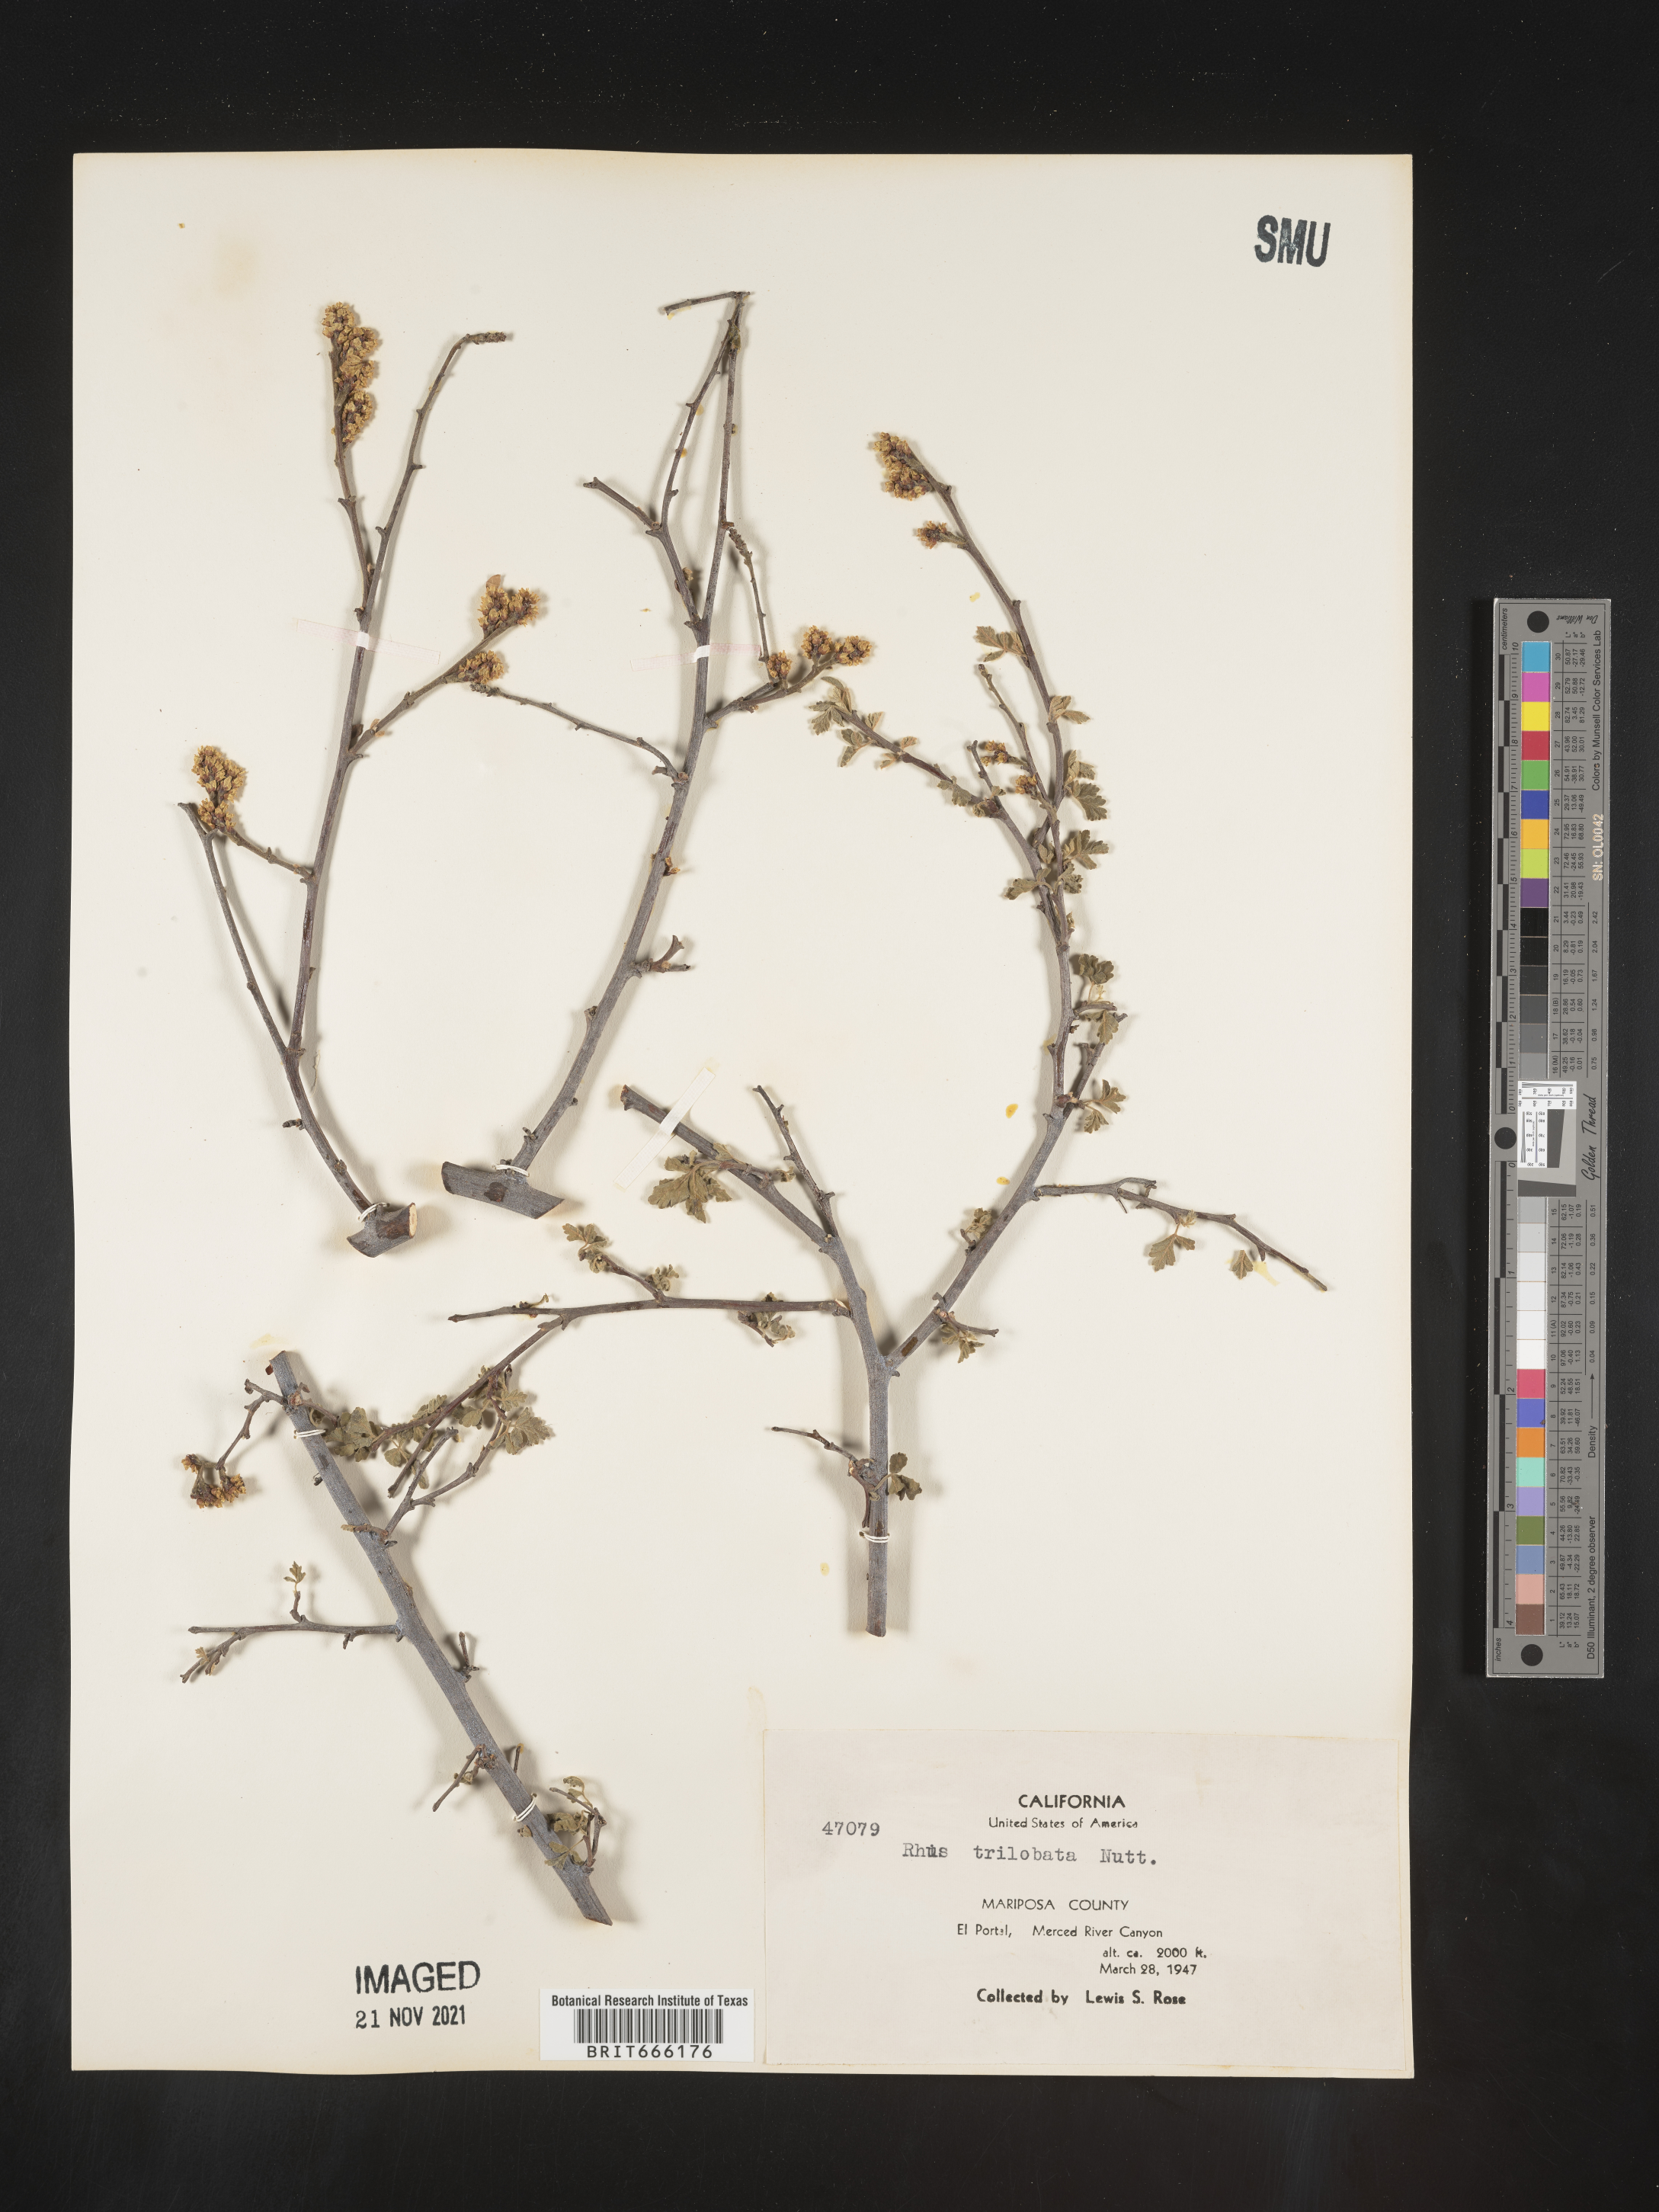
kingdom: Plantae
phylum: Tracheophyta
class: Magnoliopsida
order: Sapindales
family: Anacardiaceae
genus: Rhus
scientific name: Rhus trilobata
